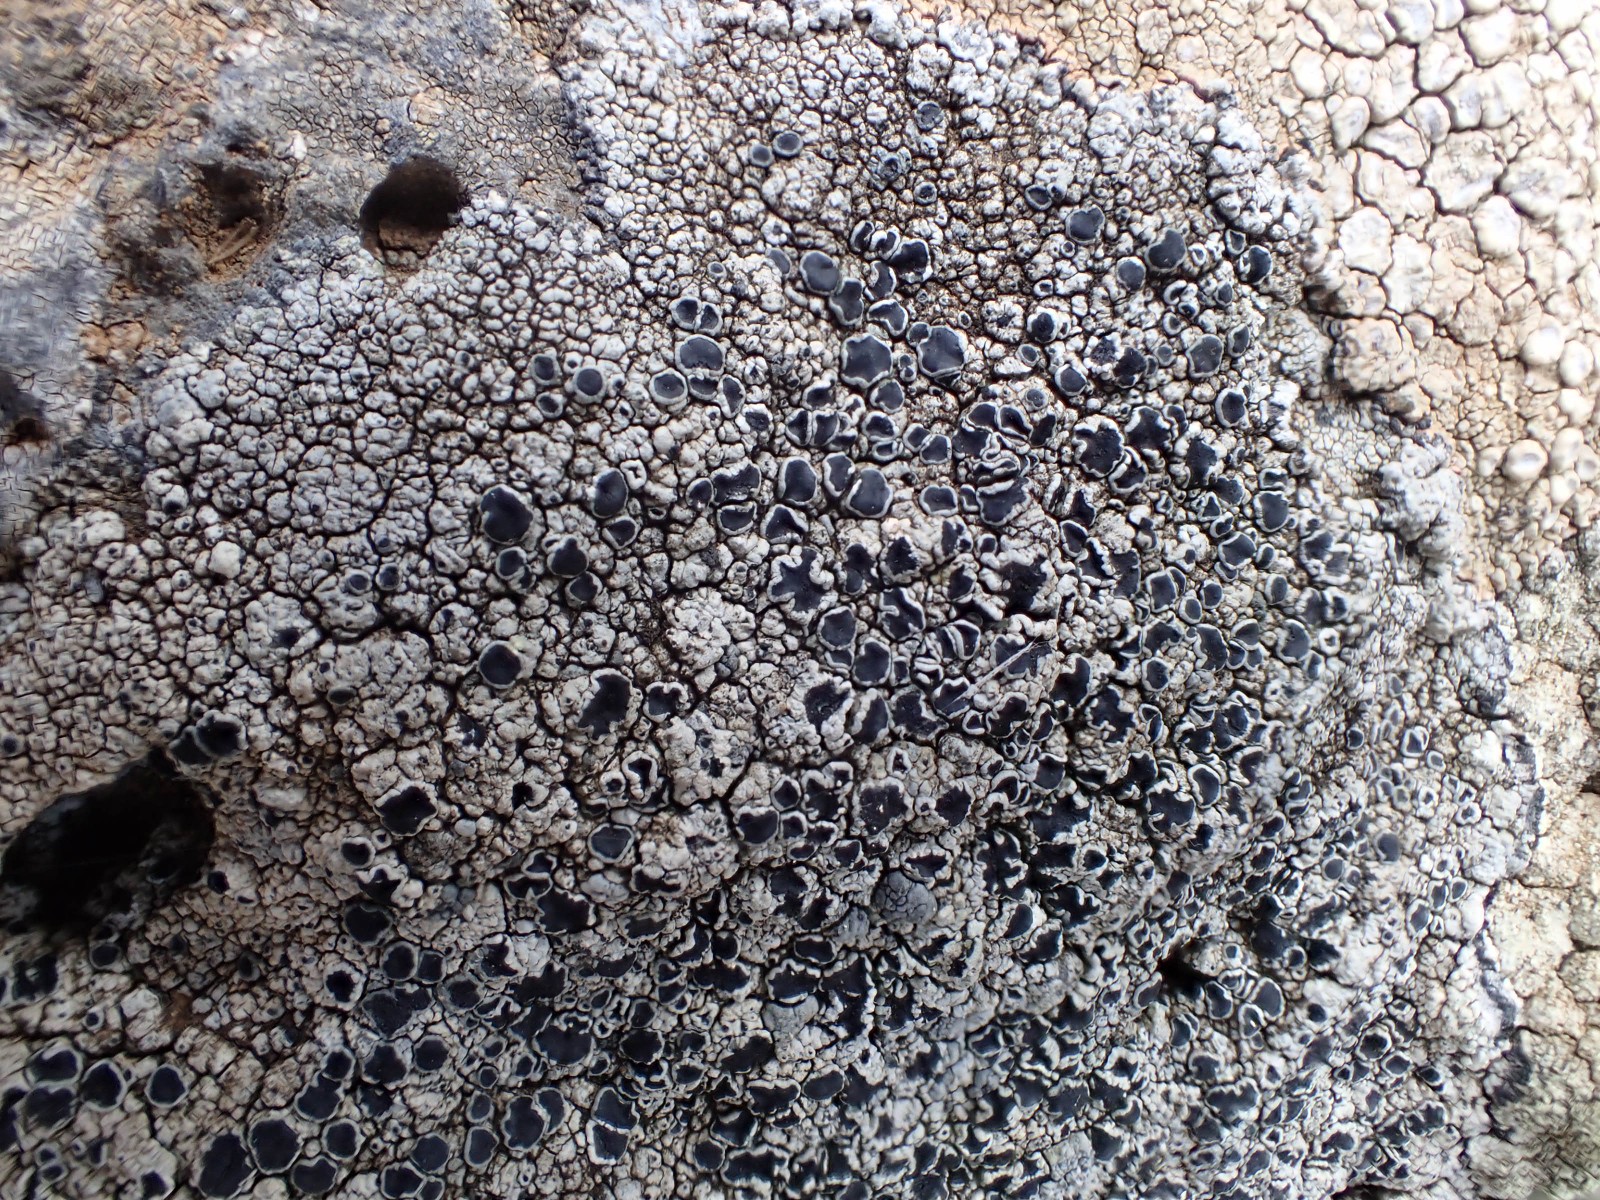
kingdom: Fungi
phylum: Ascomycota
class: Lecanoromycetes
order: Lecanorales
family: Tephromelataceae
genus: Tephromela
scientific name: Tephromela atra
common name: sortfrugtet kantskivelav
